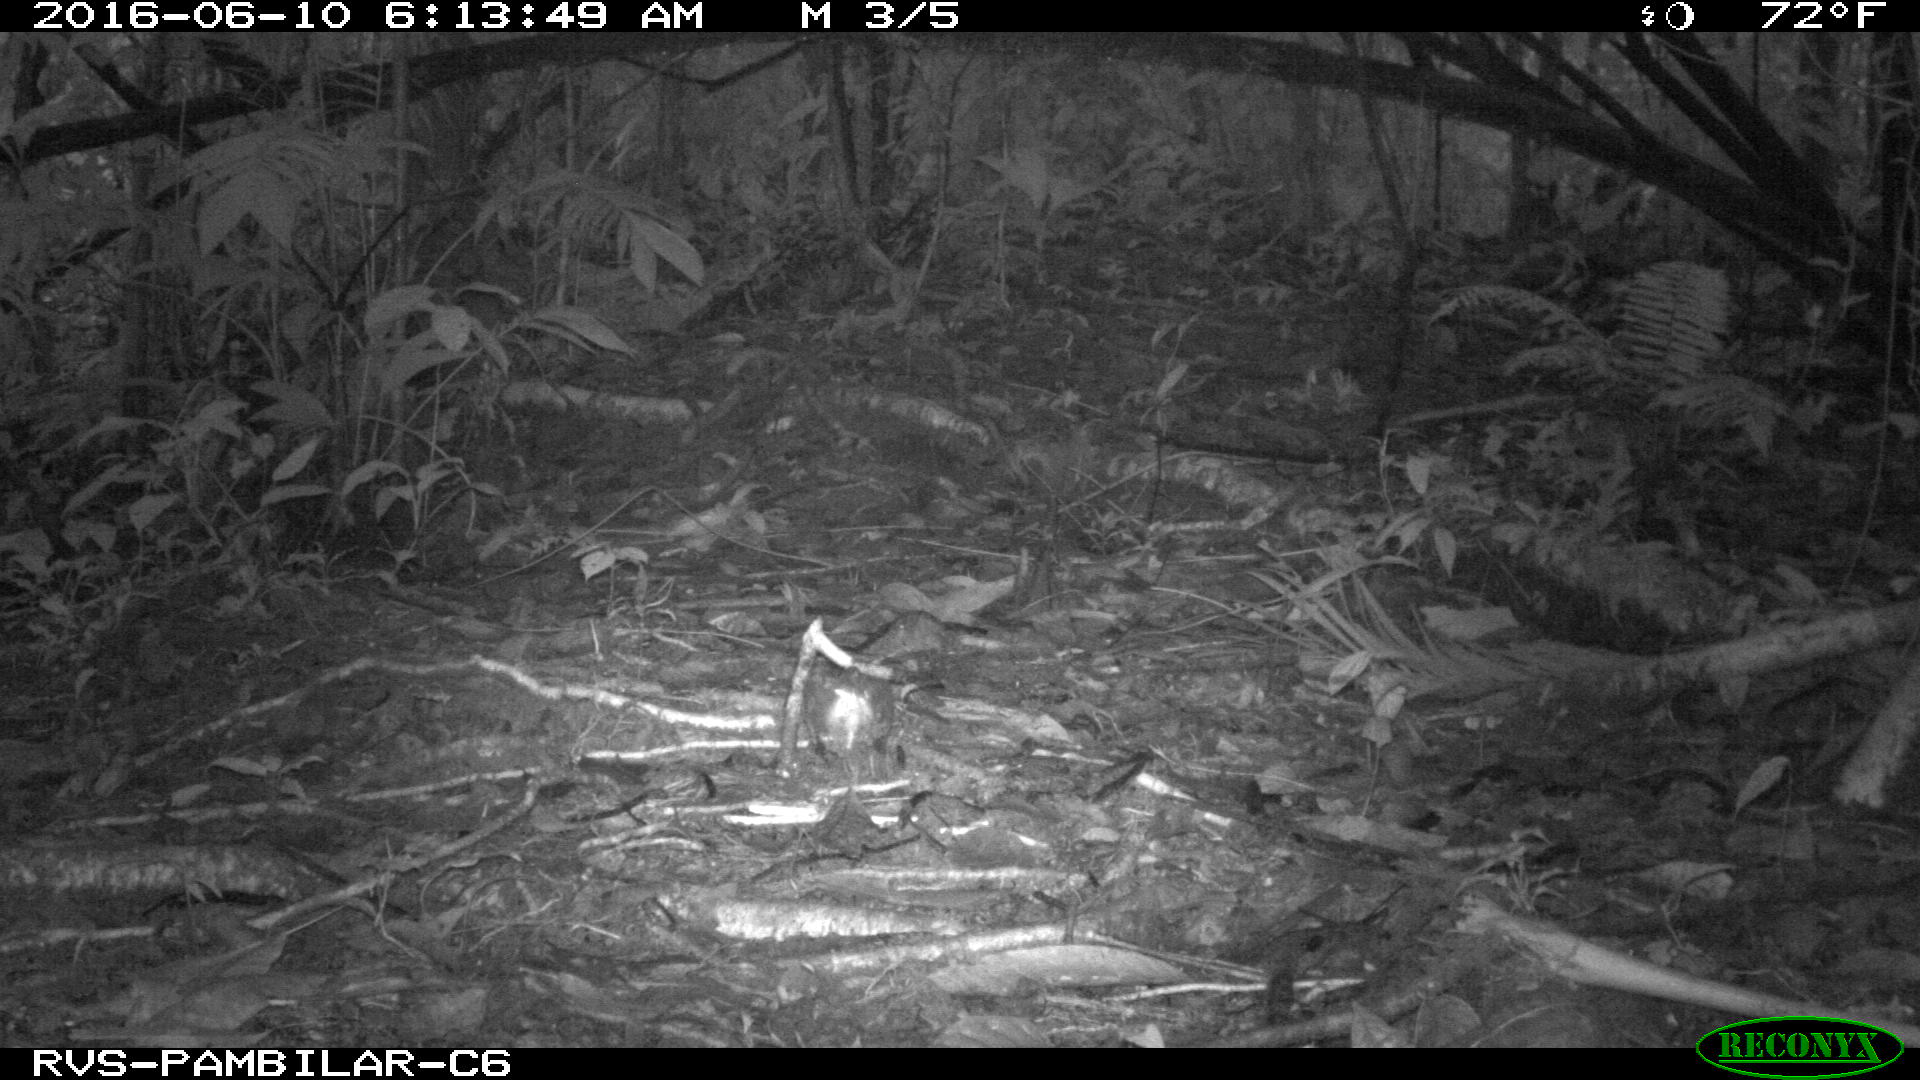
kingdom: Animalia
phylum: Chordata
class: Mammalia
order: Rodentia
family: Dasyproctidae
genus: Dasyprocta
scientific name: Dasyprocta punctata
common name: Central american agouti
